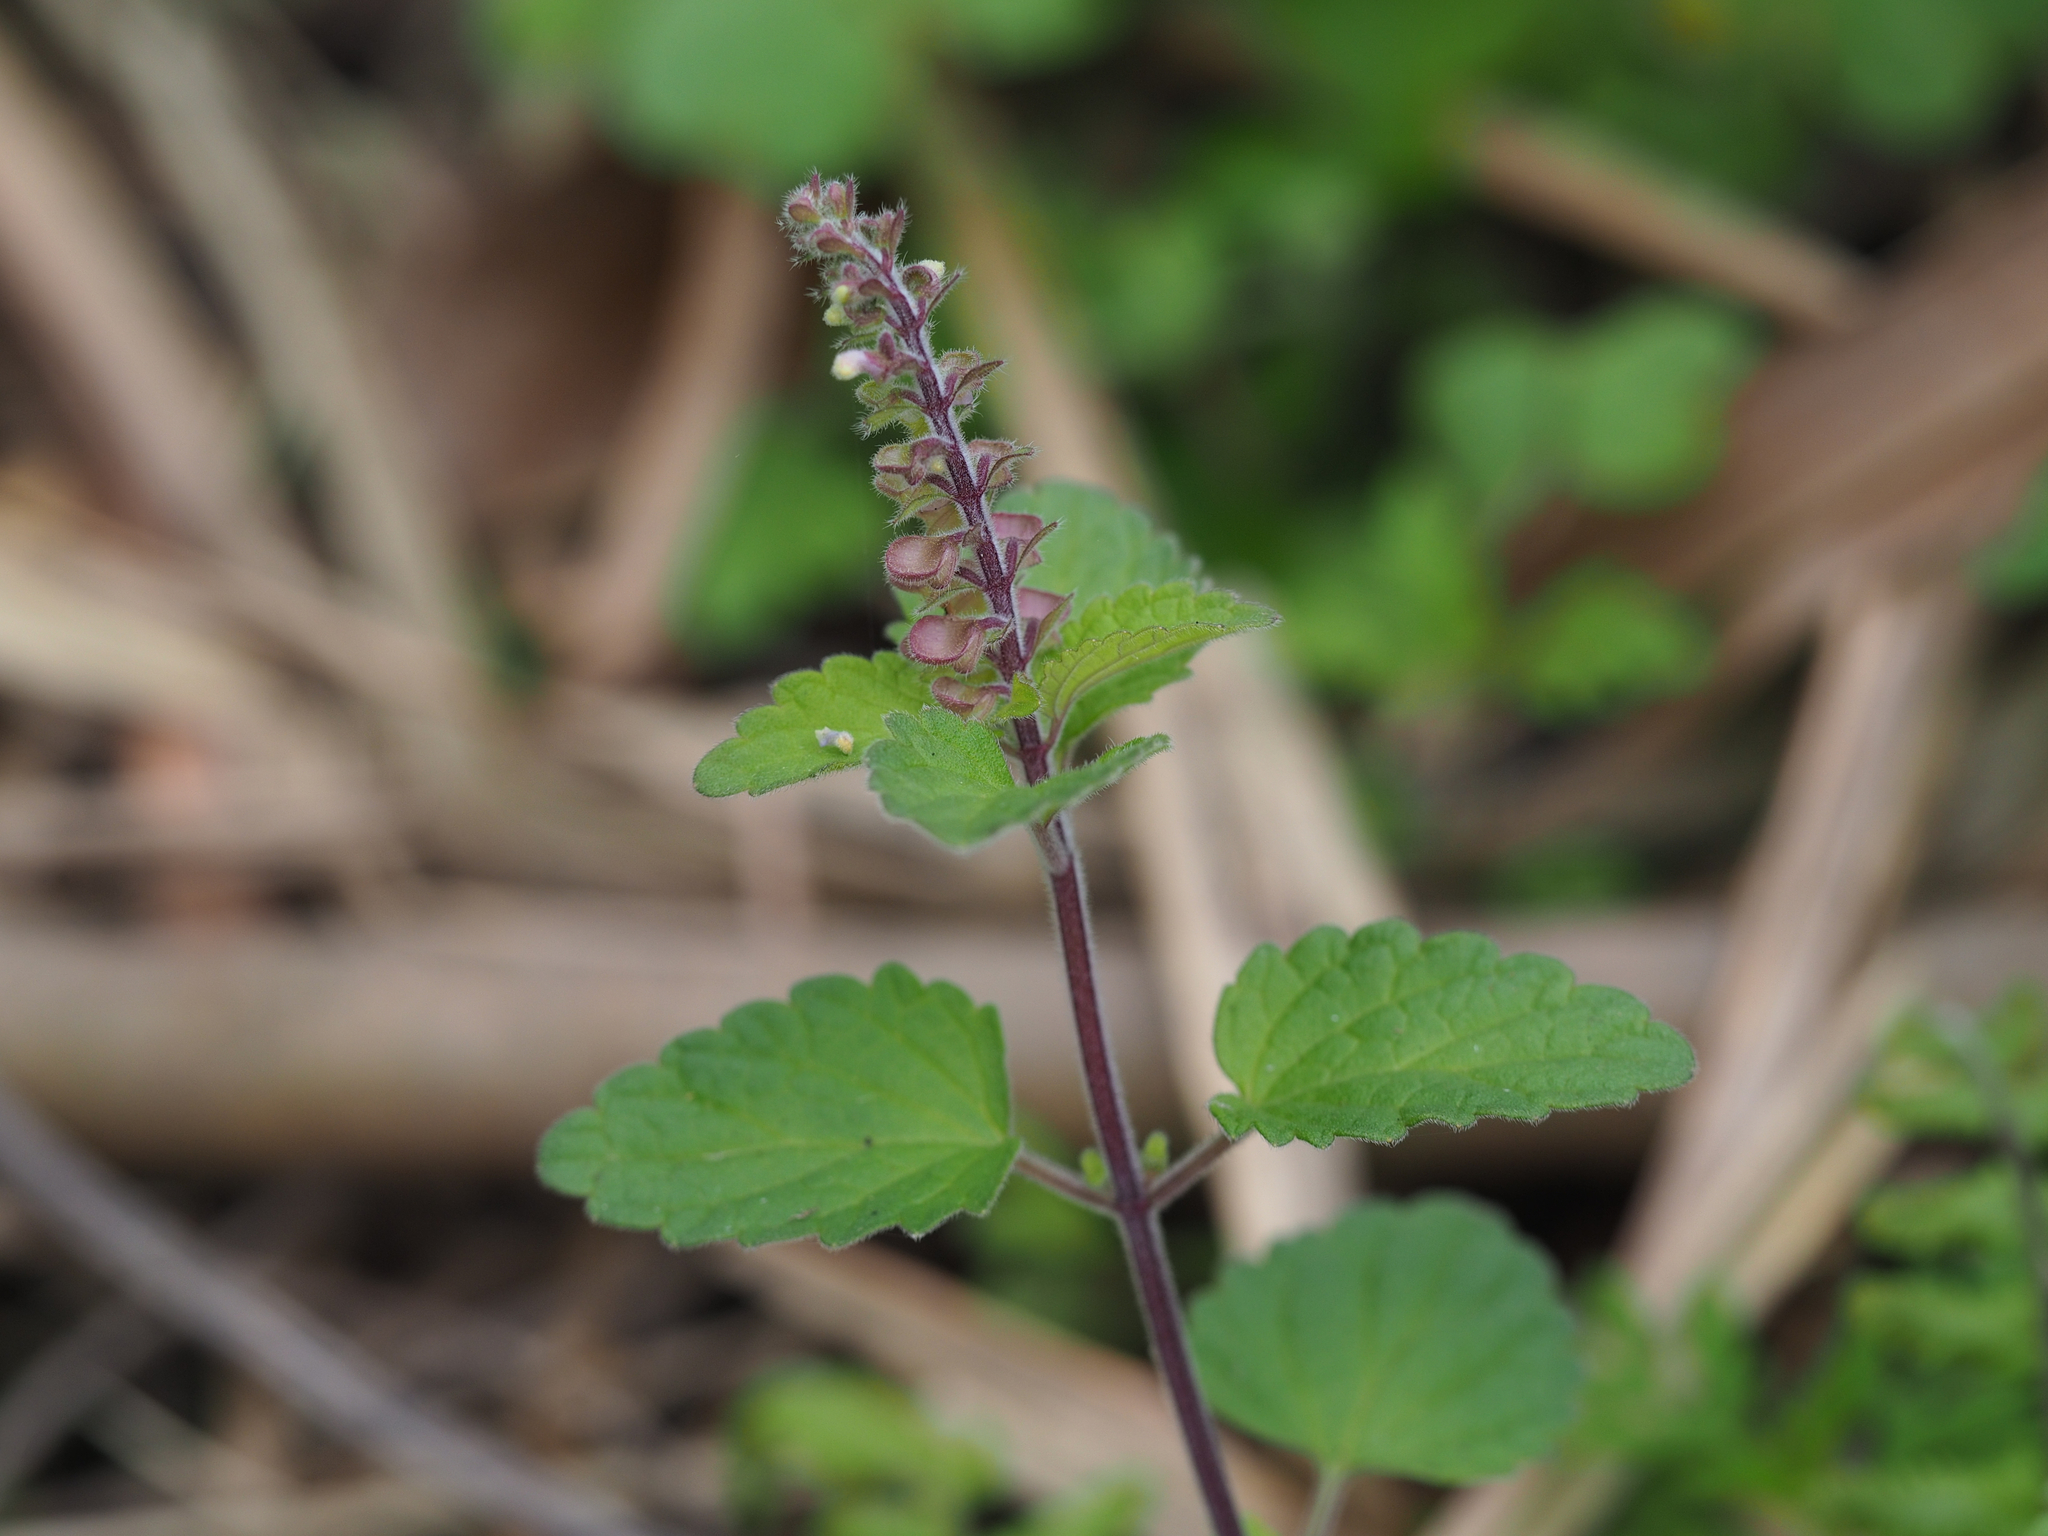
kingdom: Plantae
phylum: Tracheophyta
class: Magnoliopsida
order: Lamiales
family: Lamiaceae
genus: Scutellaria
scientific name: Scutellaria indica
